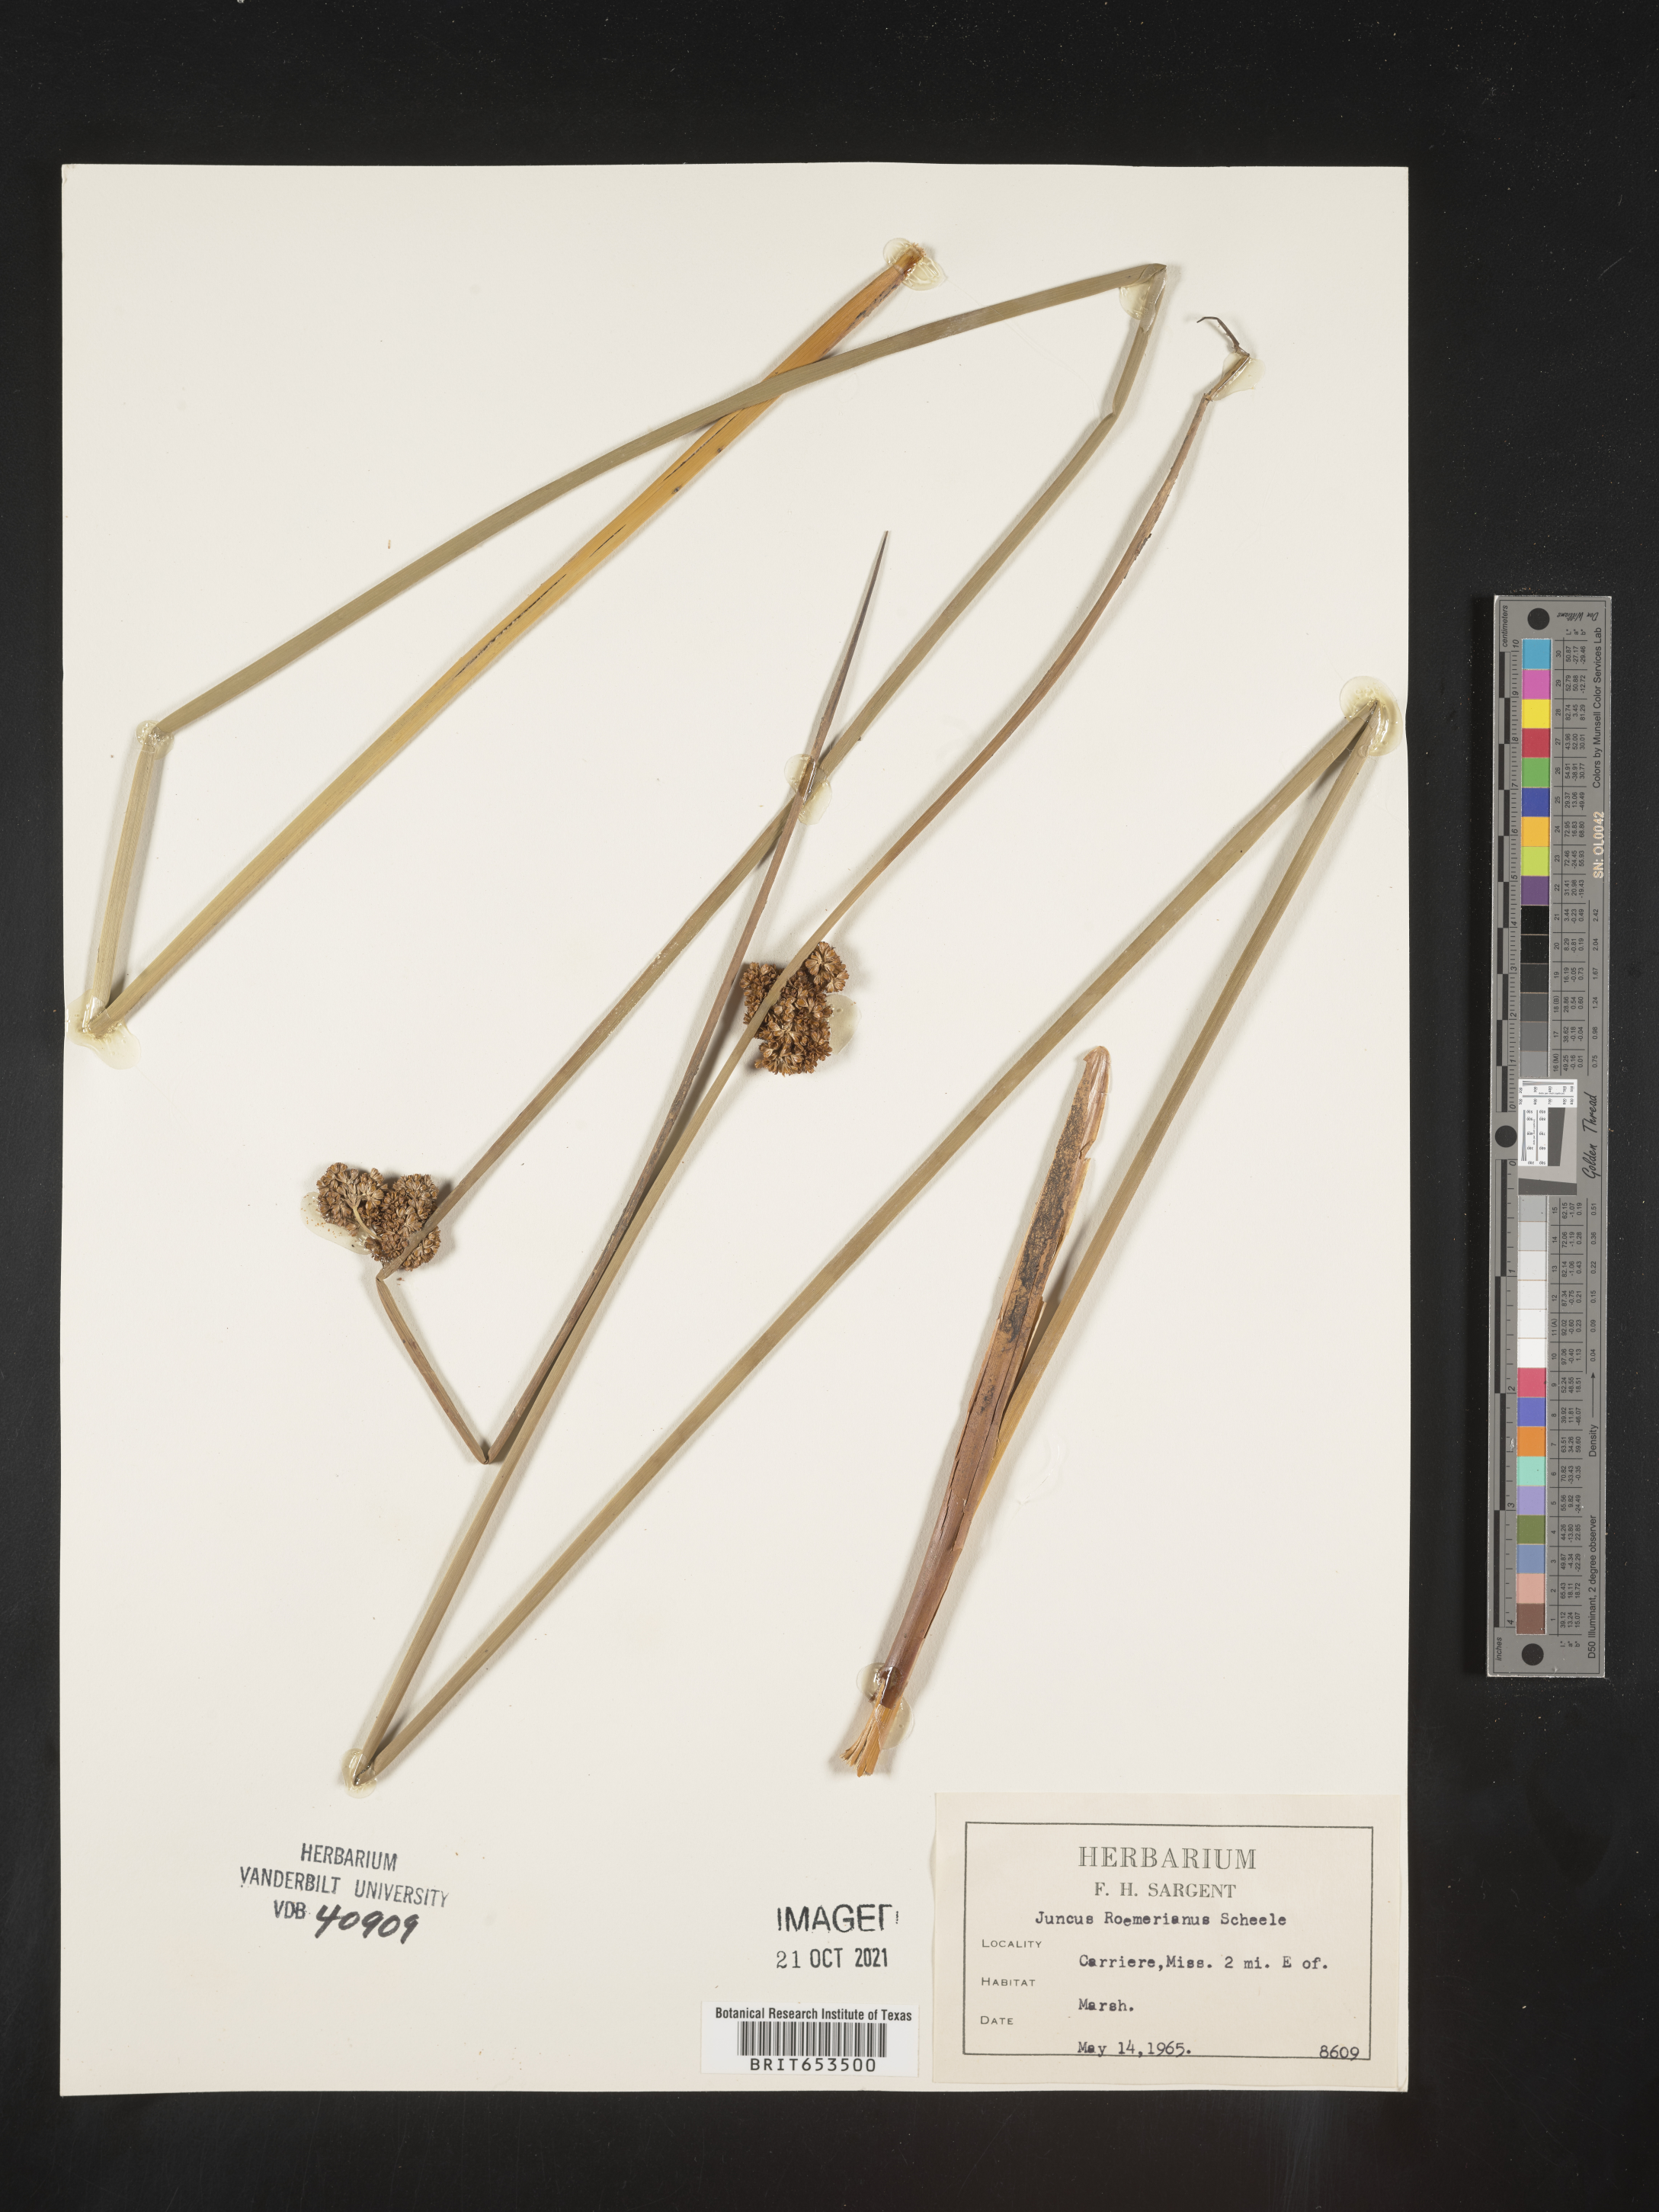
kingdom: Plantae
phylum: Tracheophyta
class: Liliopsida
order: Poales
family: Juncaceae
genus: Juncus
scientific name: Juncus roemerianus
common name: Roemer's rush
